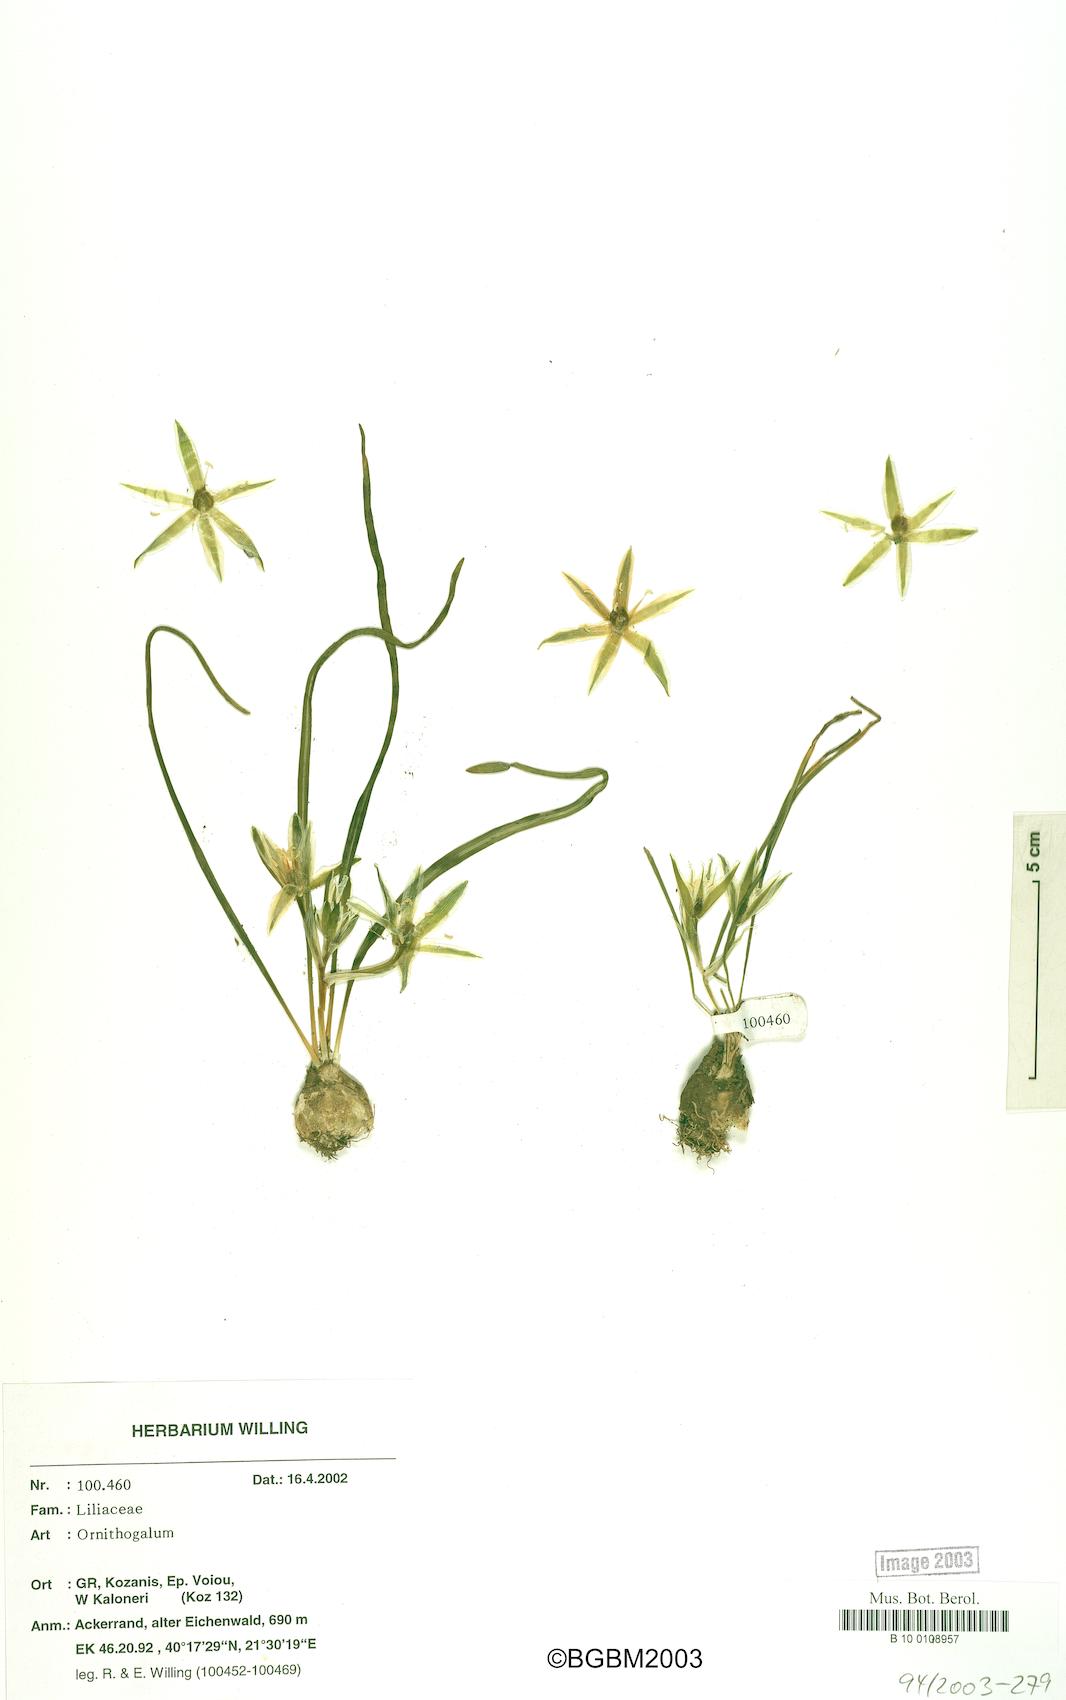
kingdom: Plantae
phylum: Tracheophyta
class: Liliopsida
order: Asparagales
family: Asparagaceae
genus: Ornithogalum
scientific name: Ornithogalum
